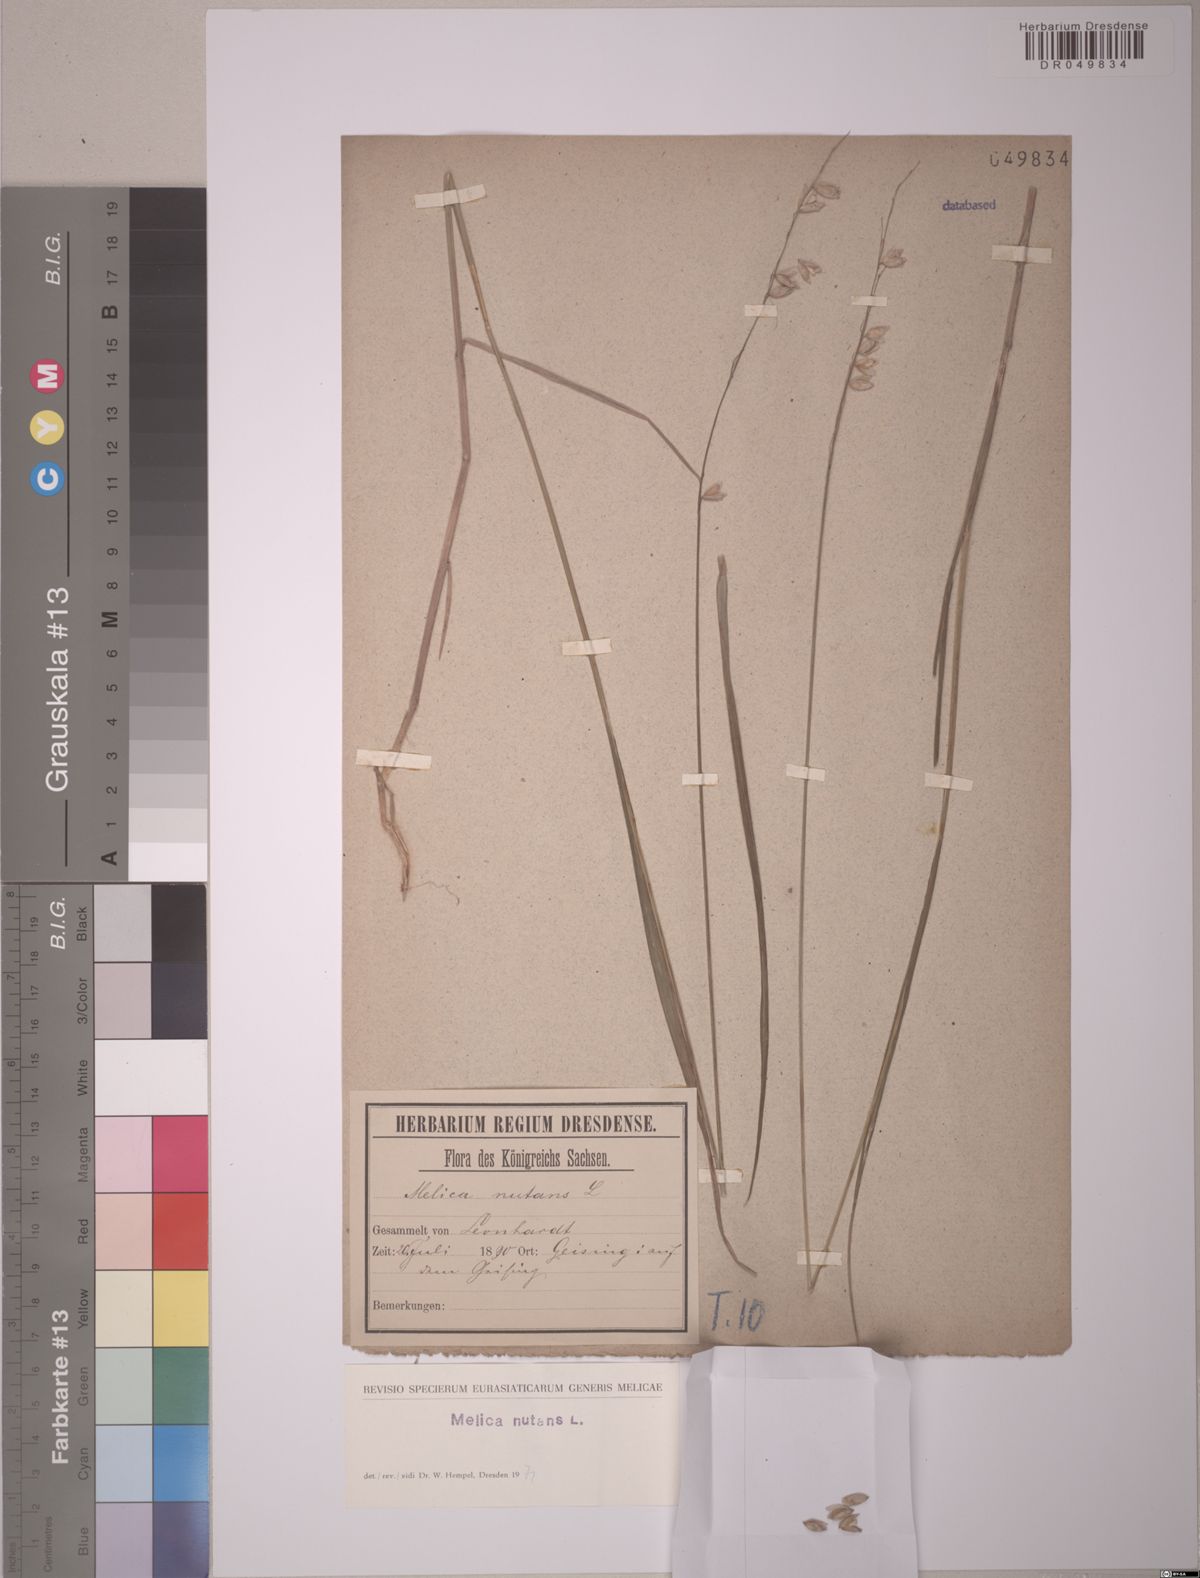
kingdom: Plantae
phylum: Tracheophyta
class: Liliopsida
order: Poales
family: Poaceae
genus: Melica
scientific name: Melica nutans
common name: Mountain melick
